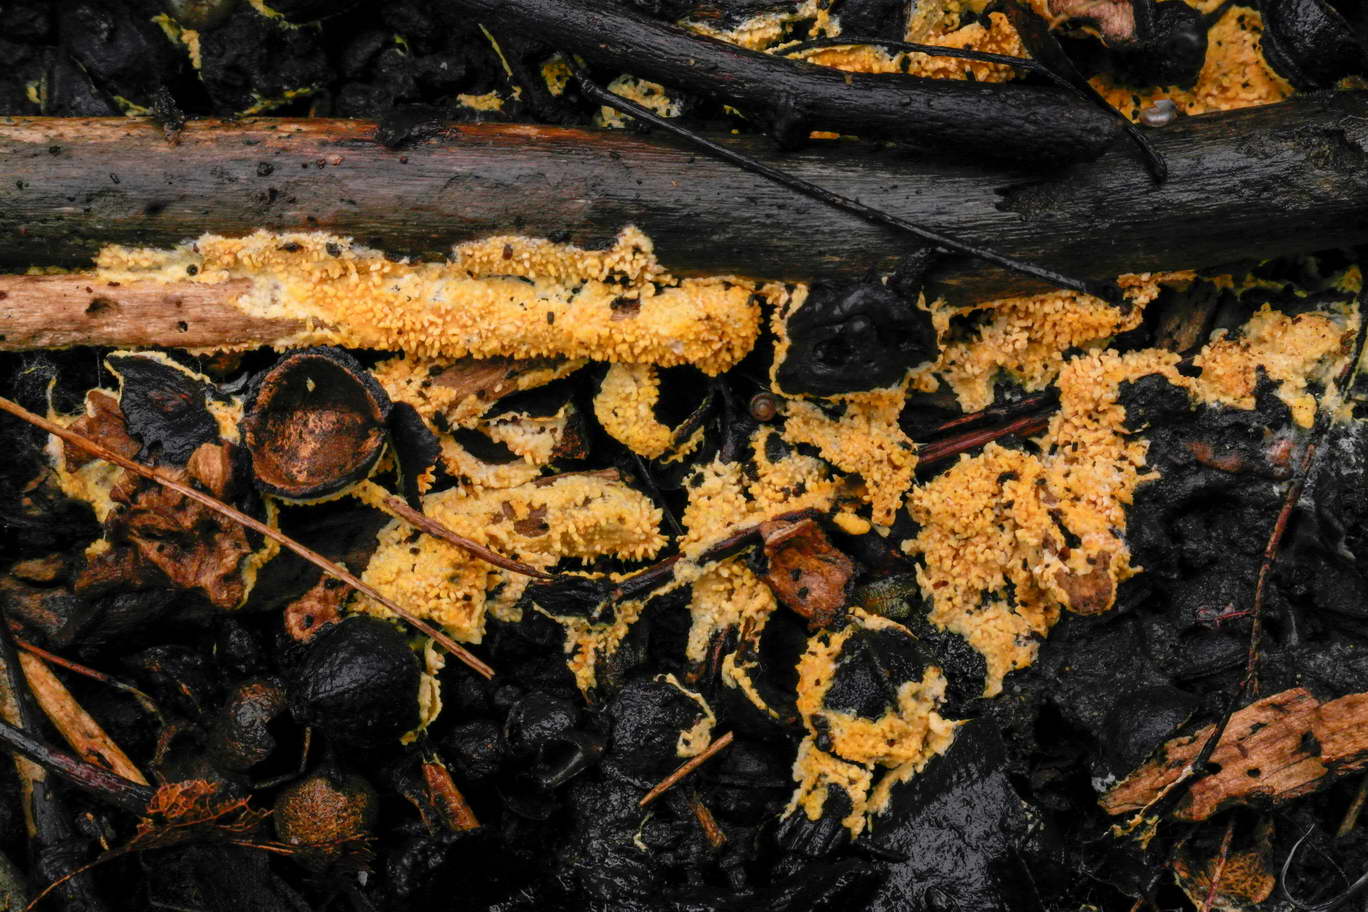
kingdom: Fungi
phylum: Basidiomycota
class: Agaricomycetes
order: Agaricales
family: Stephanosporaceae
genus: Lindtneria
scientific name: Lindtneria panphyliensis
